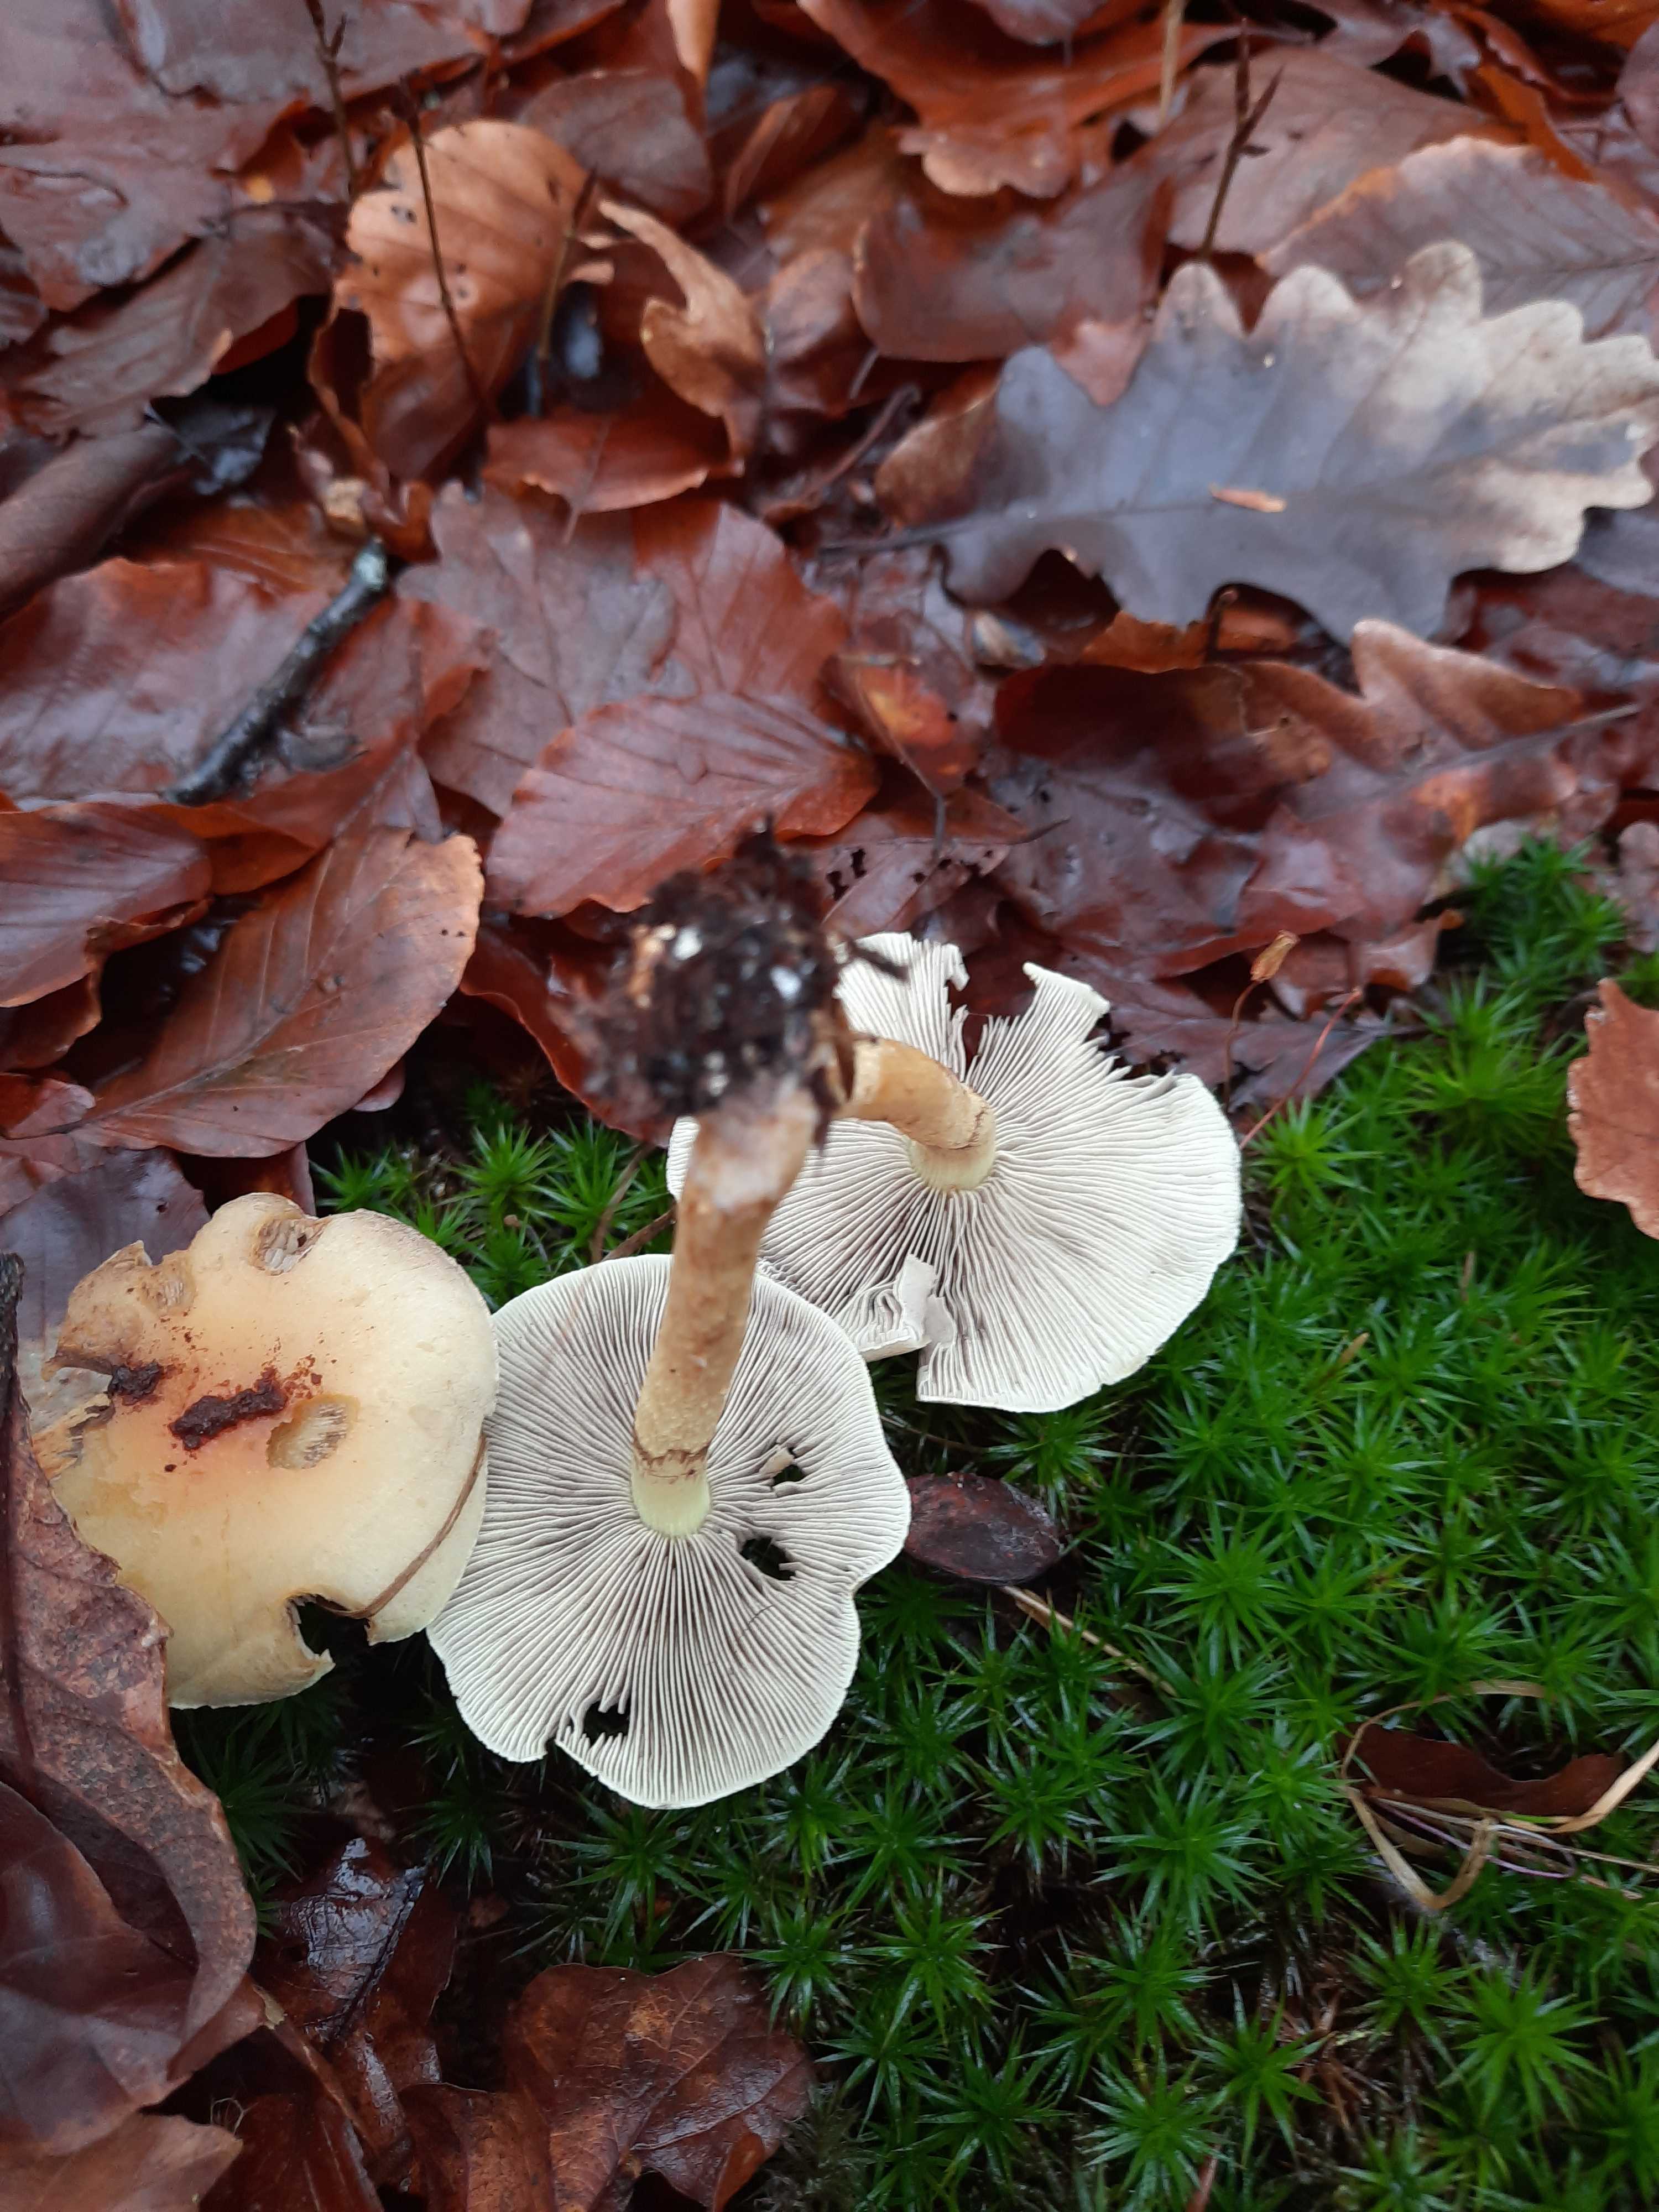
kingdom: Fungi
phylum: Basidiomycota
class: Agaricomycetes
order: Agaricales
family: Strophariaceae
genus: Hypholoma
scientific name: Hypholoma fasciculare
